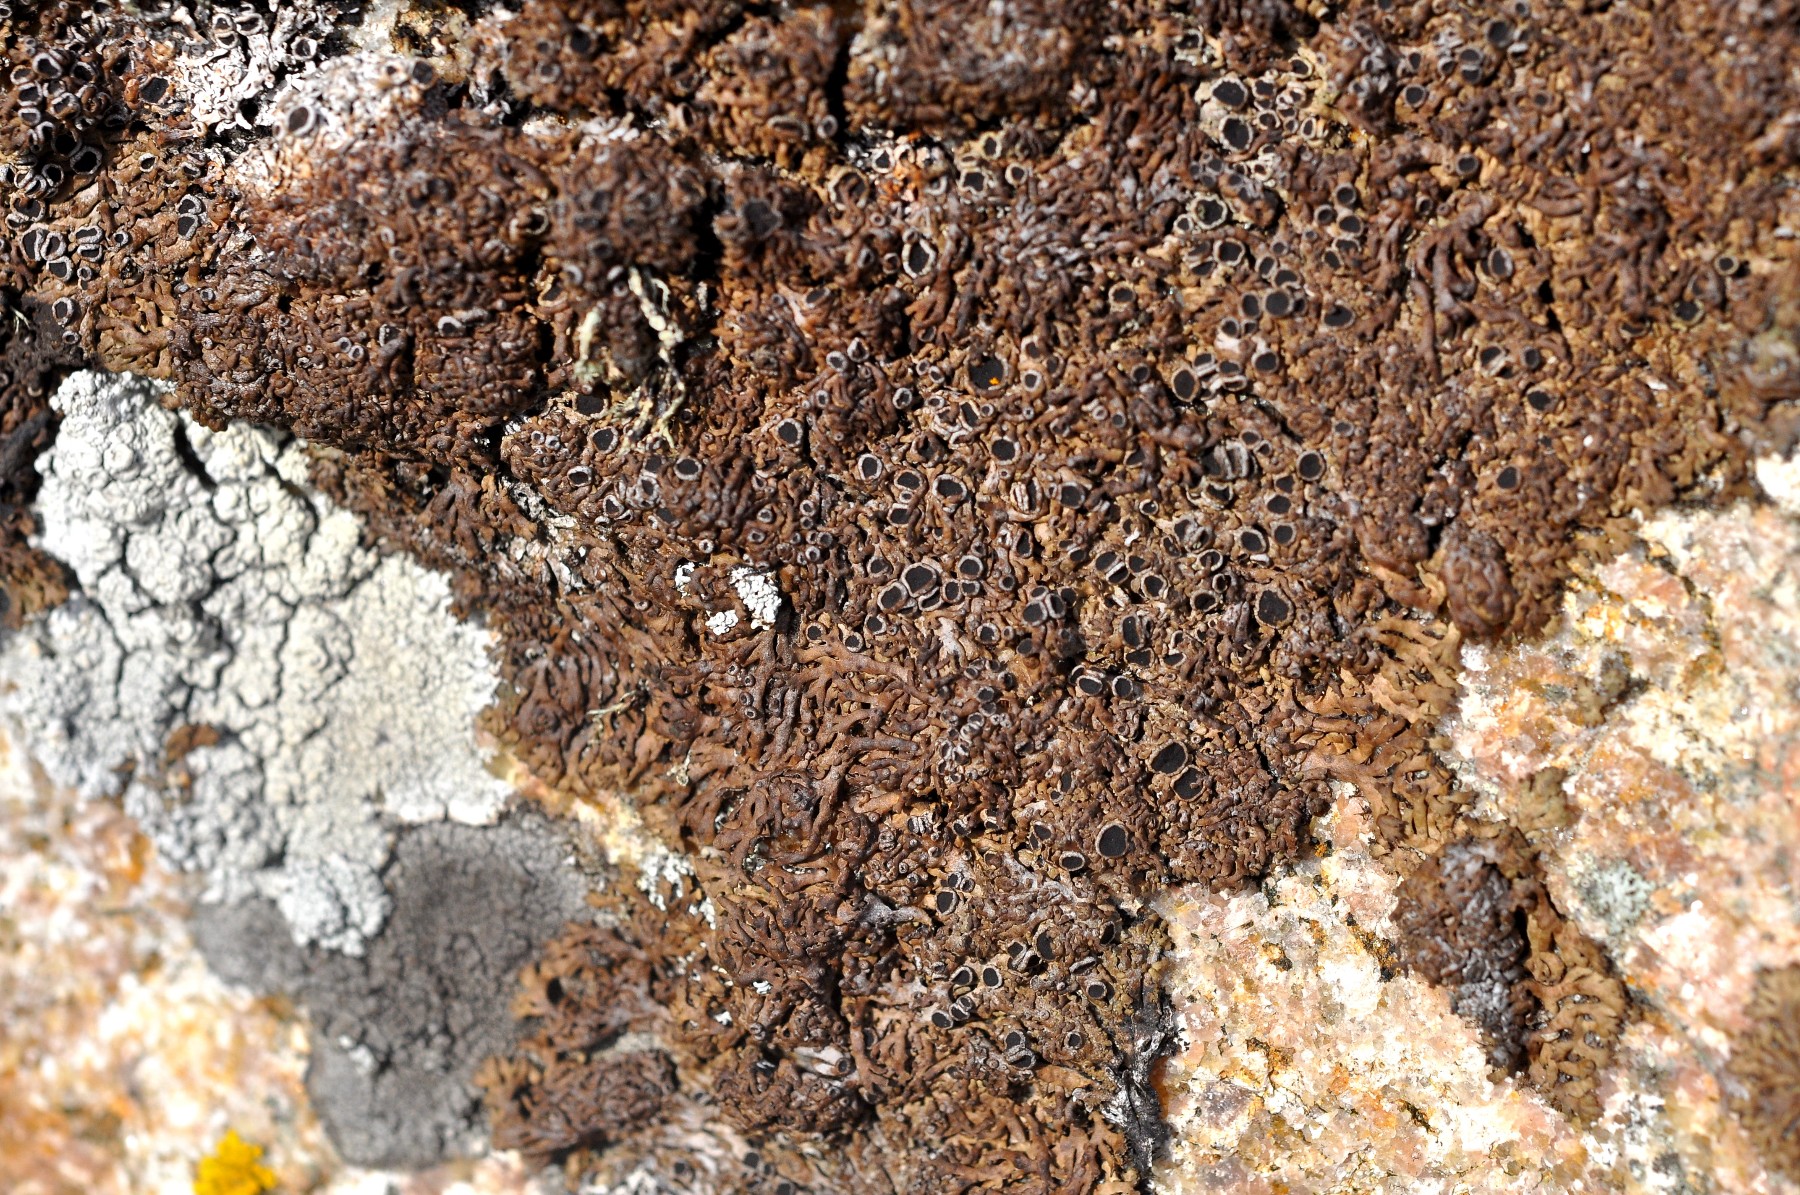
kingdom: Fungi
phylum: Ascomycota
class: Lecanoromycetes
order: Caliciales
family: Physciaceae
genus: Kurokawia
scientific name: Kurokawia runcinata
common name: brun frynselav
